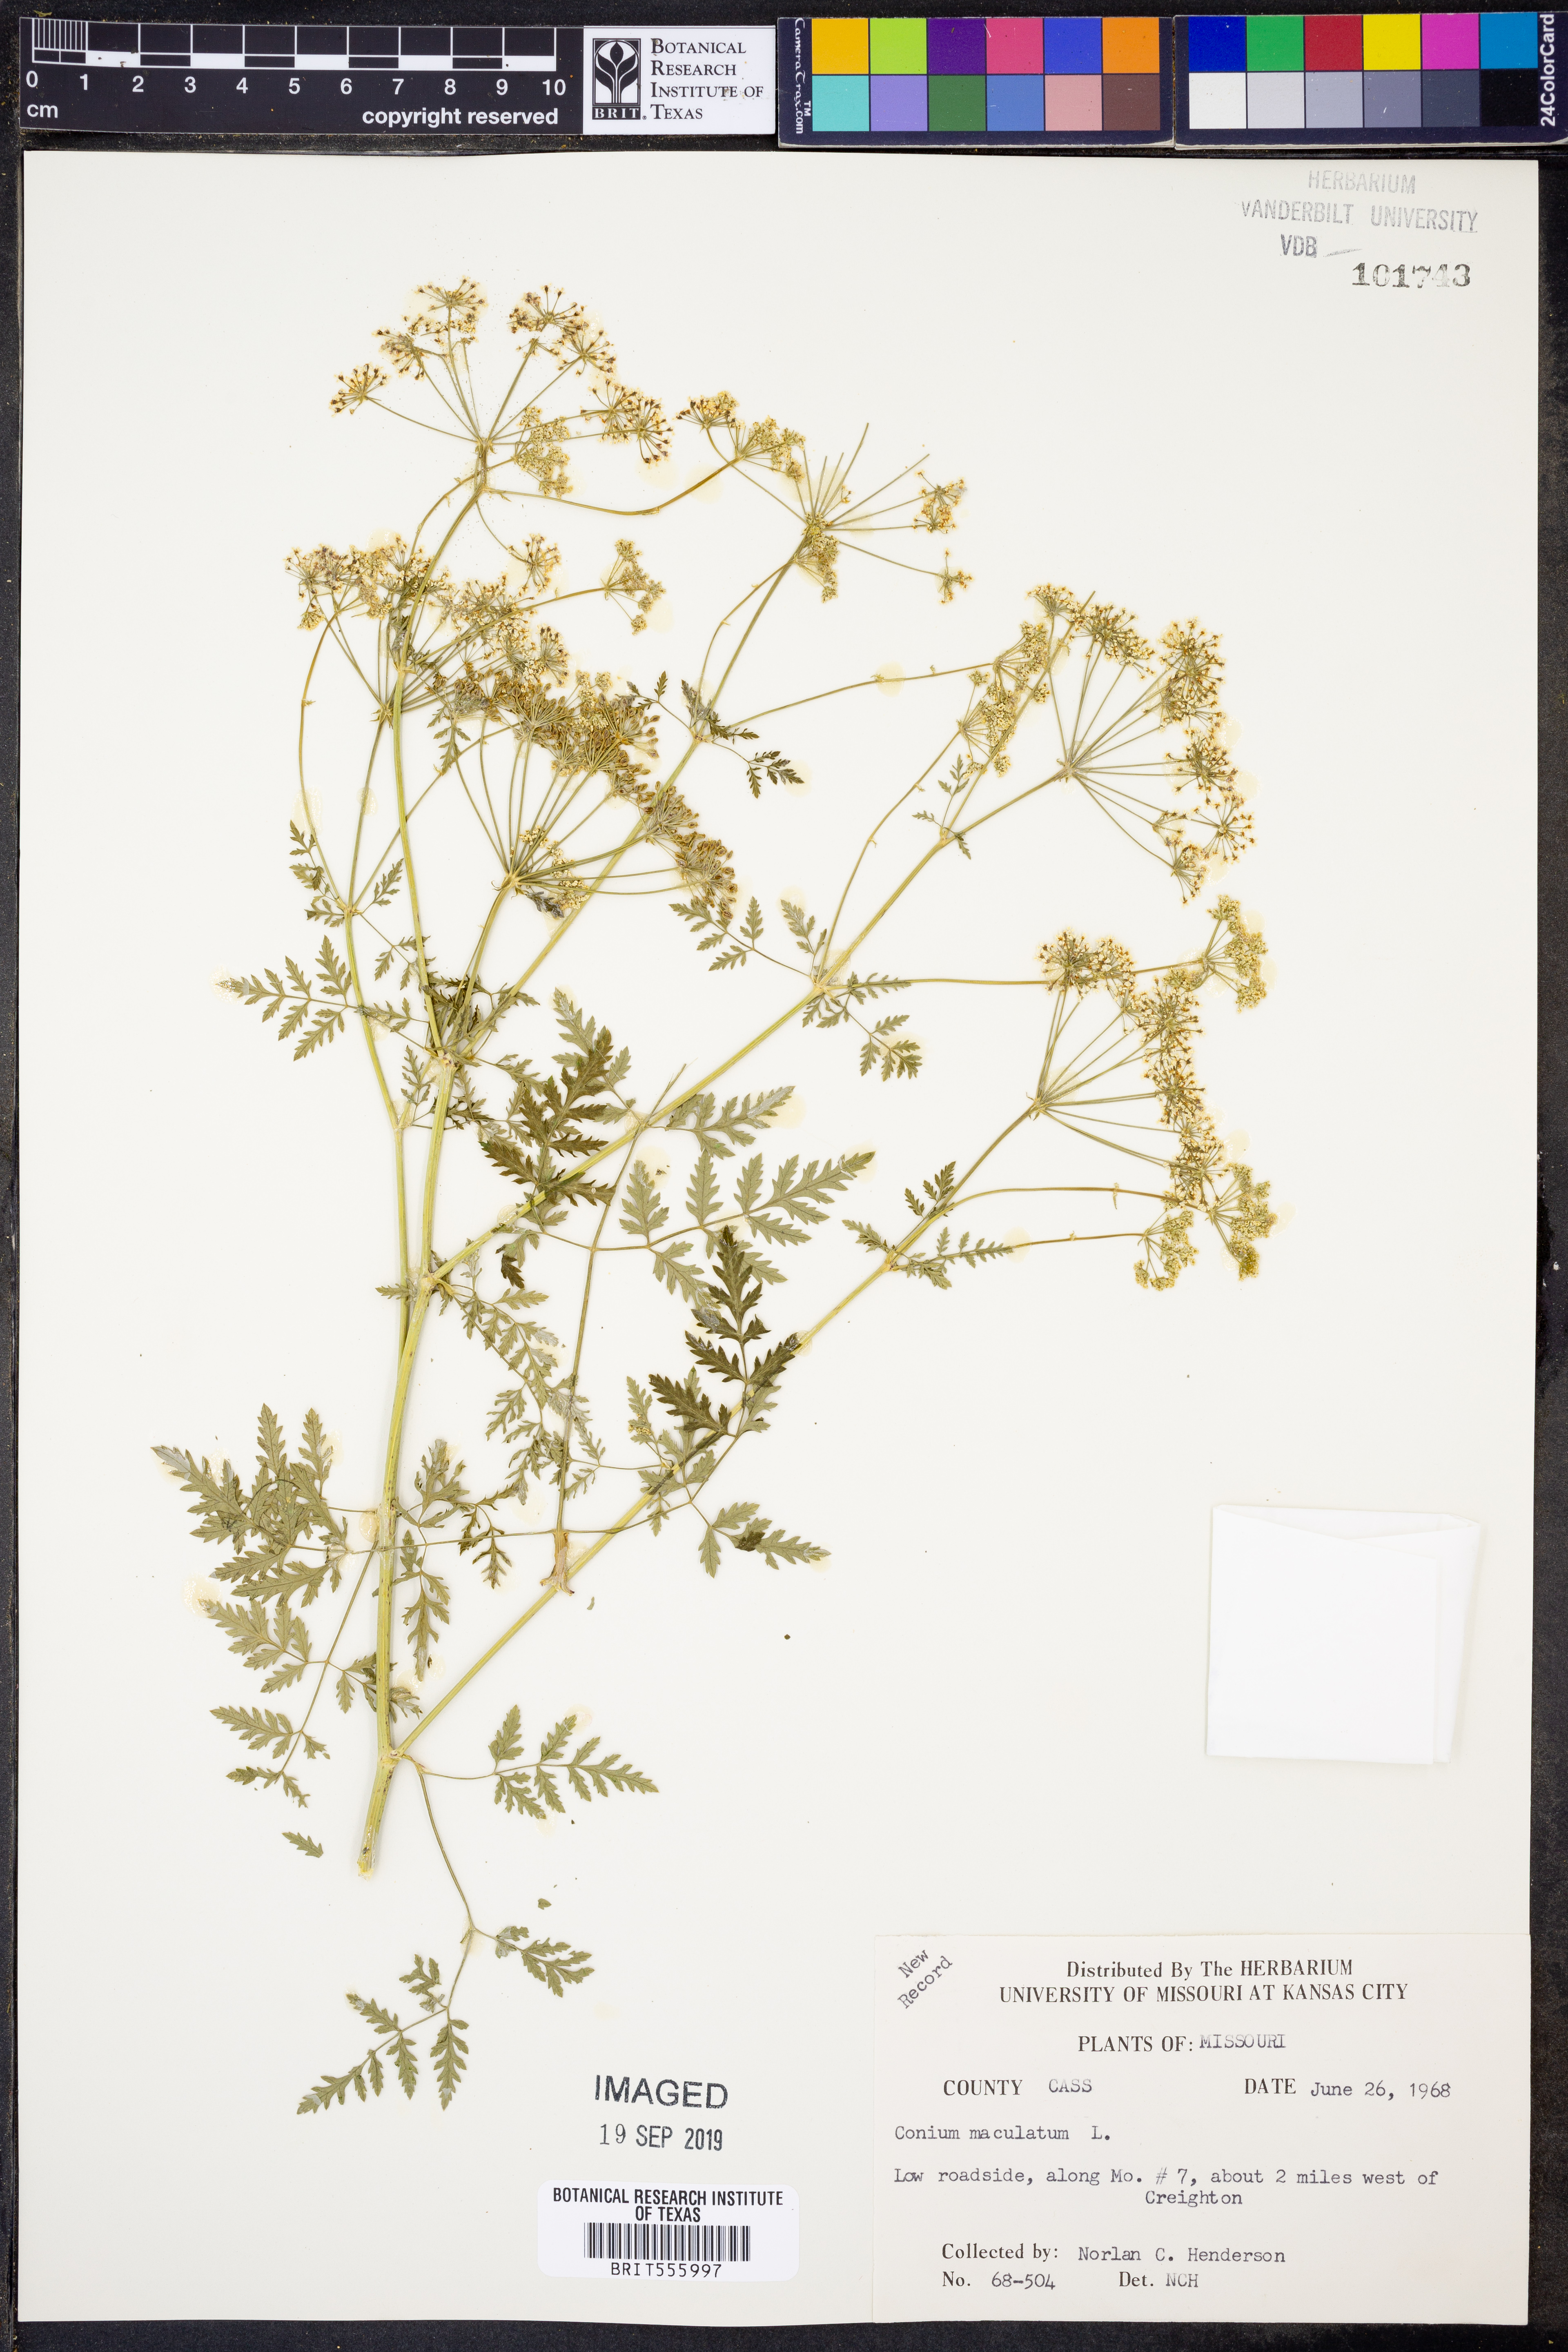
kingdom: Plantae
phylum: Tracheophyta
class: Magnoliopsida
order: Apiales
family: Apiaceae
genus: Conium
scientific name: Conium maculatum
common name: Hemlock
